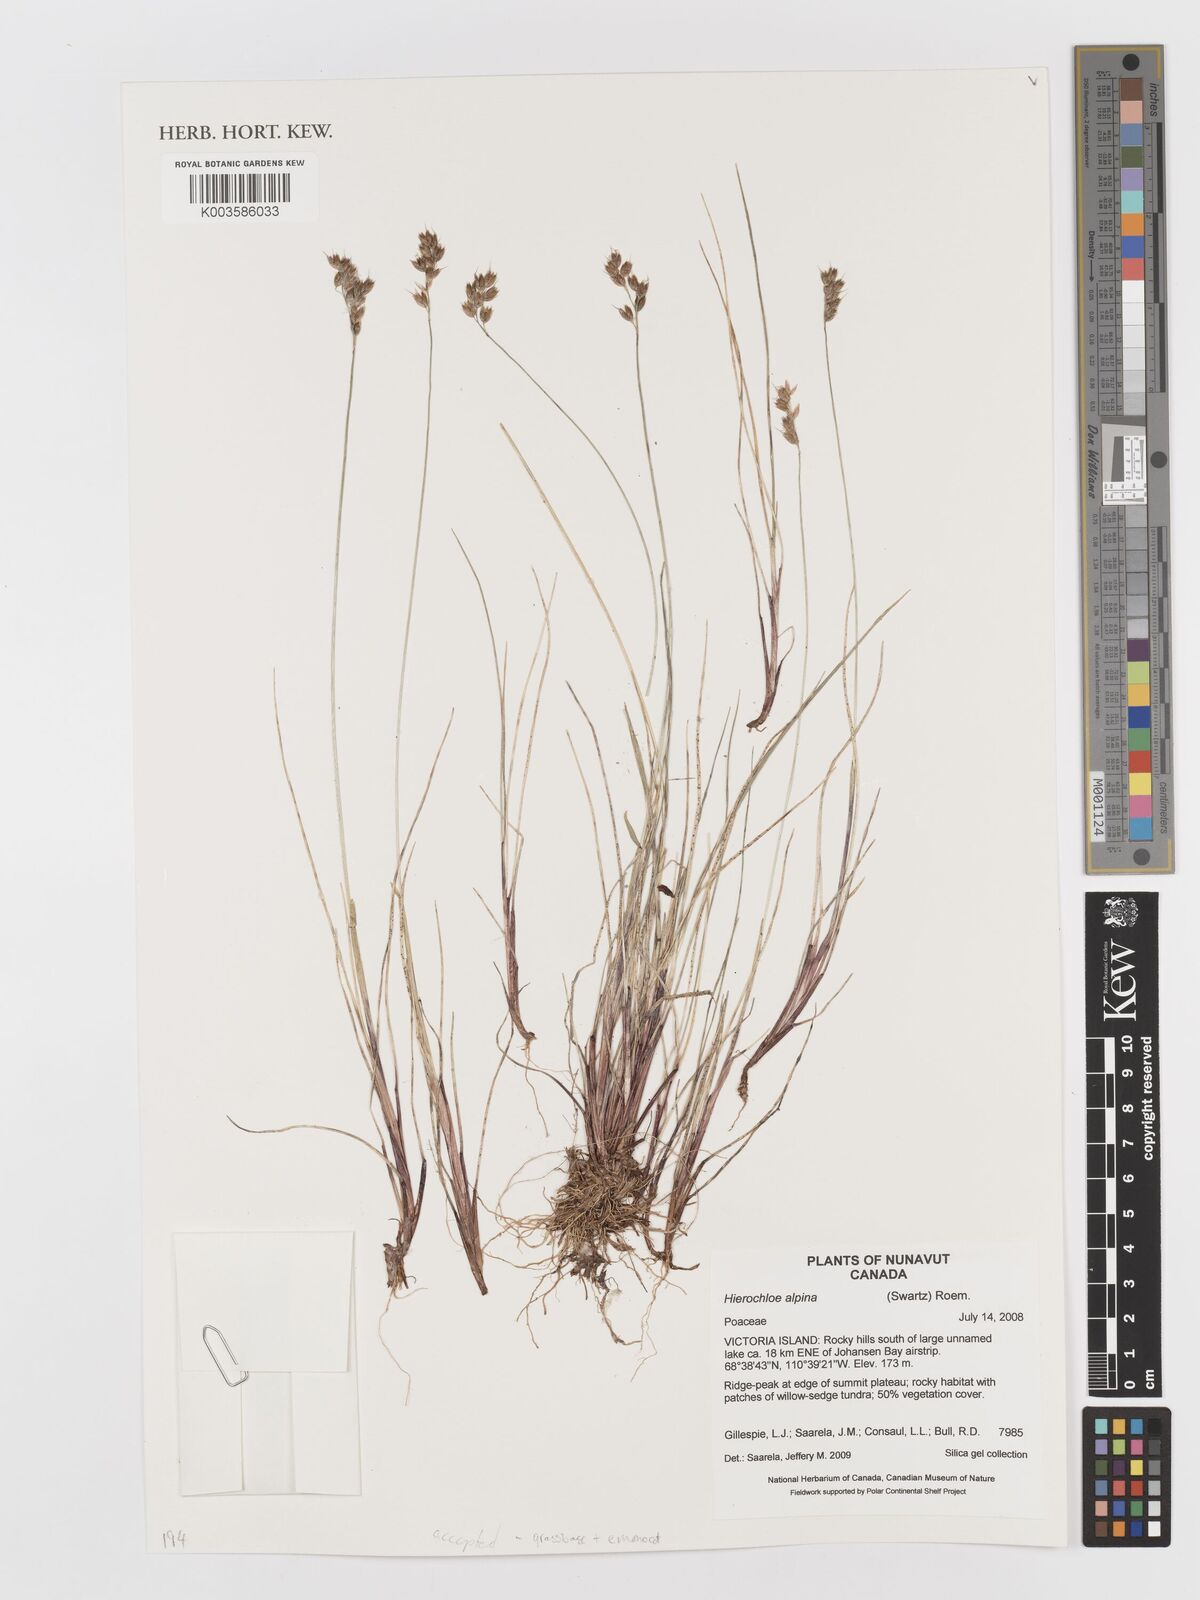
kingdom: Plantae
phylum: Tracheophyta
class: Liliopsida
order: Poales
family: Poaceae
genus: Anthoxanthum
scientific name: Anthoxanthum monticola
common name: Alpine sweetgrass
